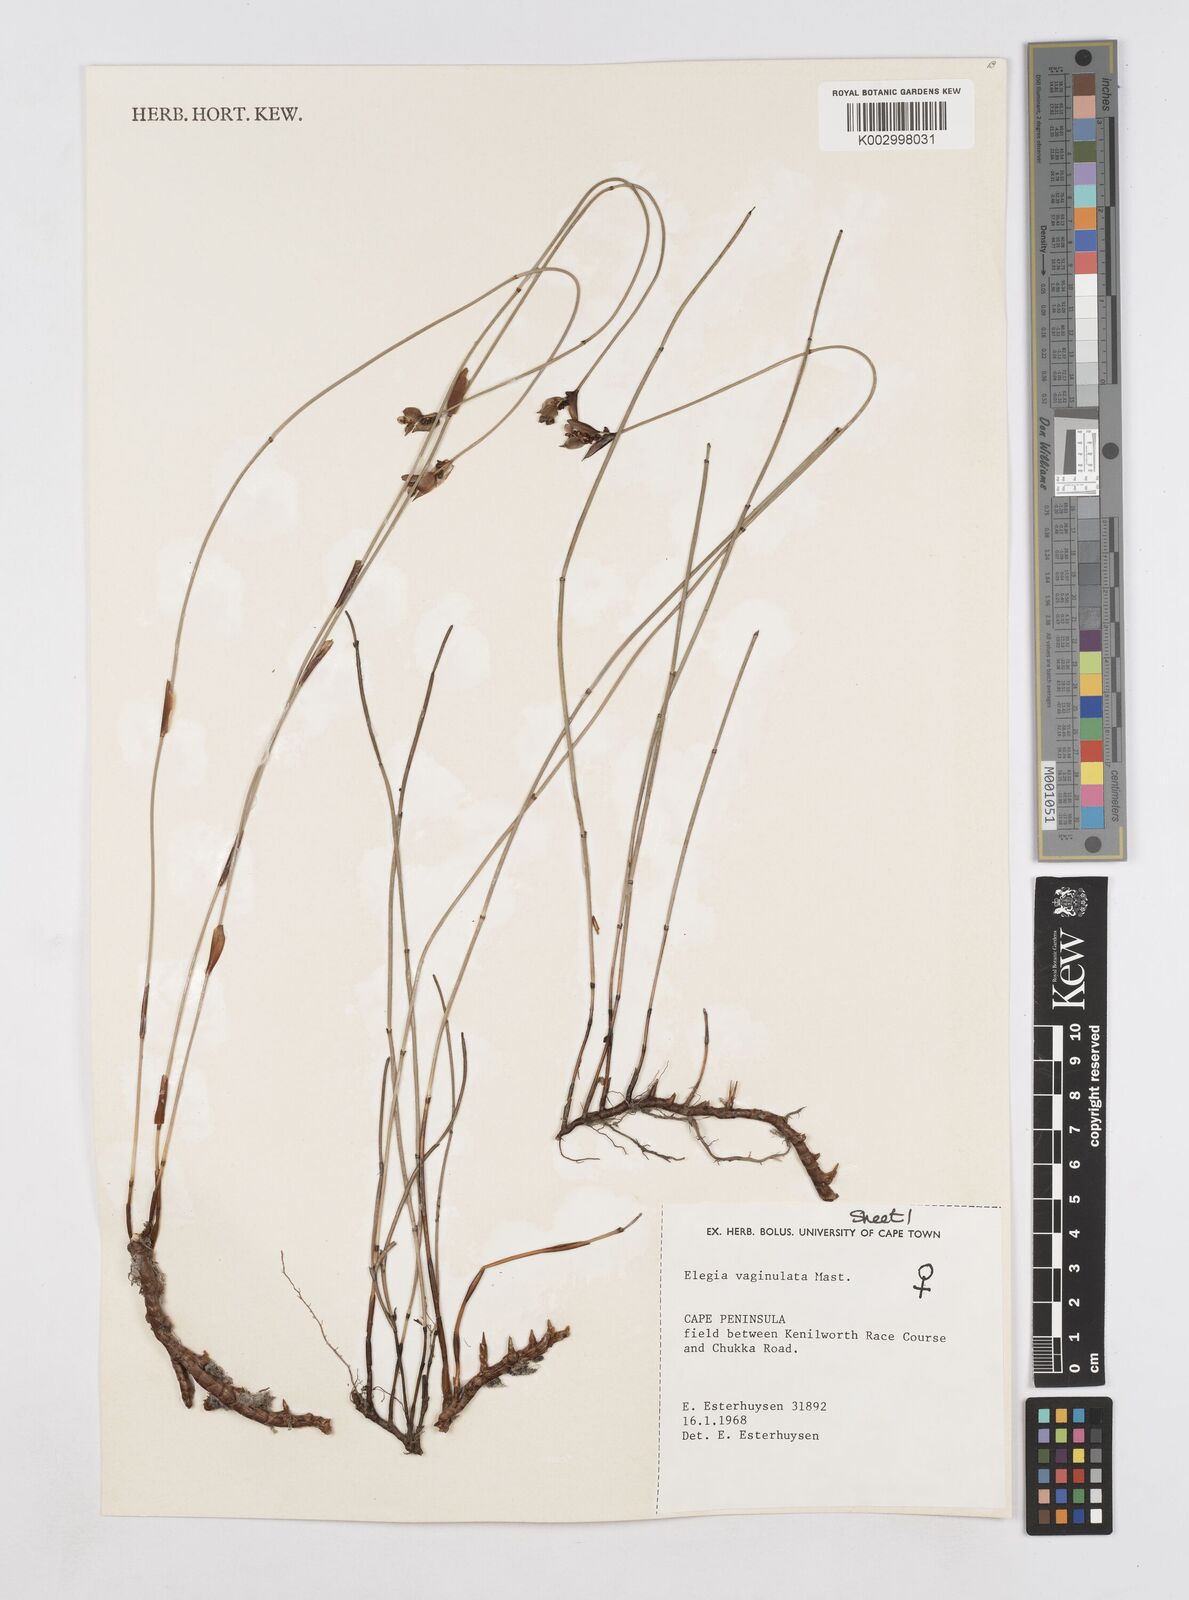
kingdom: Plantae
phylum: Tracheophyta
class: Liliopsida
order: Poales
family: Restionaceae
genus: Elegia
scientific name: Elegia vaginulata
